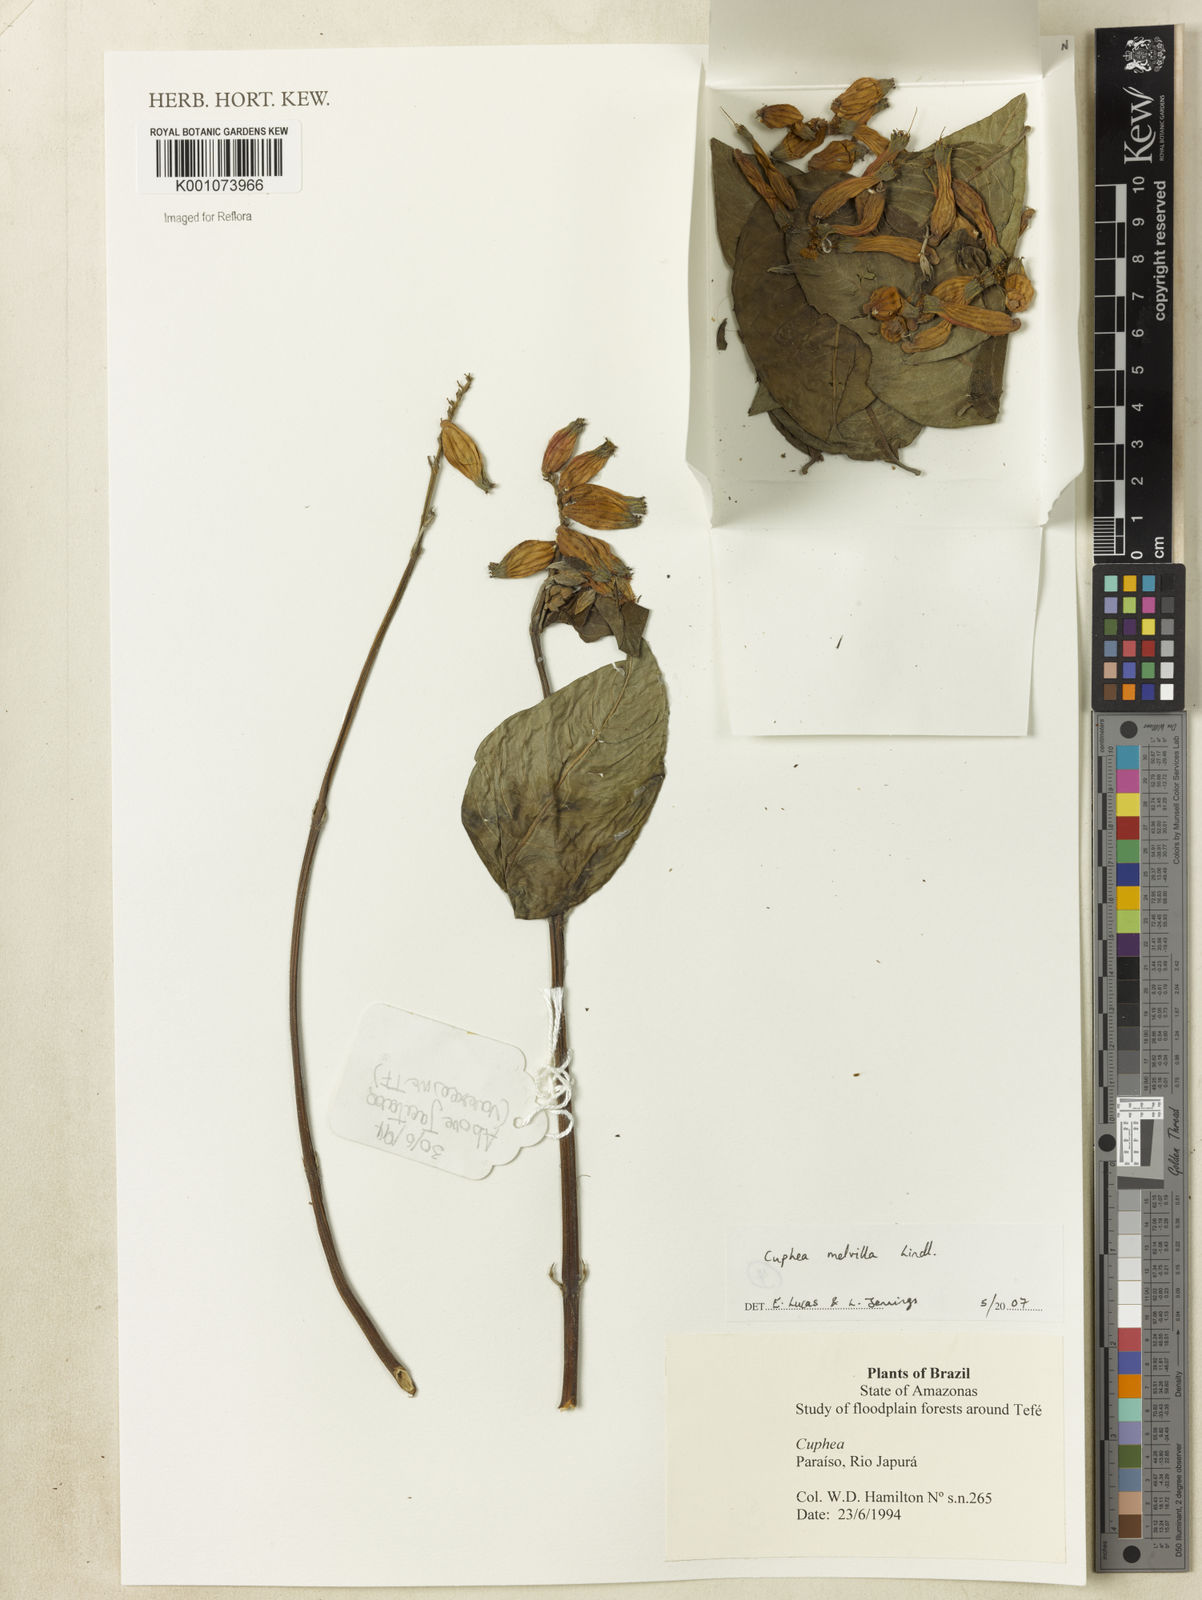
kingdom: Plantae
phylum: Tracheophyta
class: Magnoliopsida
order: Myrtales
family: Lythraceae
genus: Cuphea
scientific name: Cuphea melvilla
